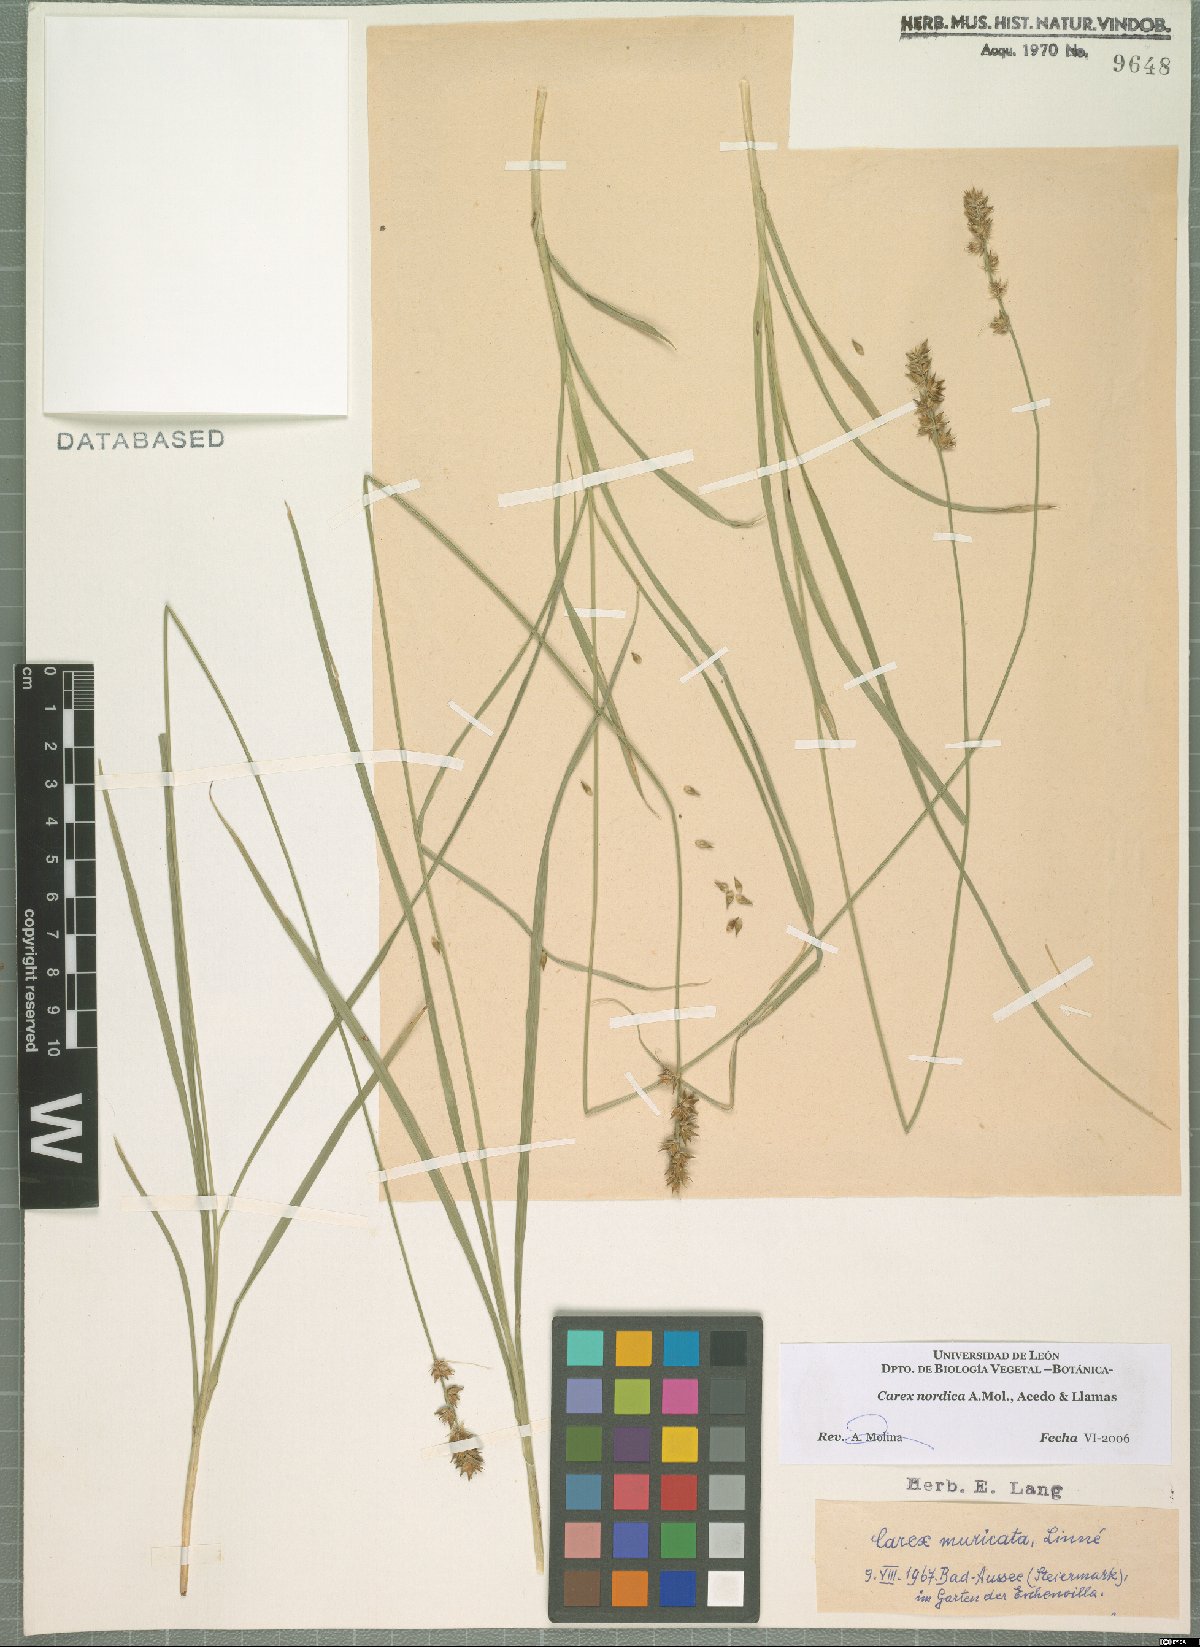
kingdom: Plantae
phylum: Tracheophyta
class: Liliopsida
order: Poales
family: Cyperaceae
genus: Carex
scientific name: Carex nordica
